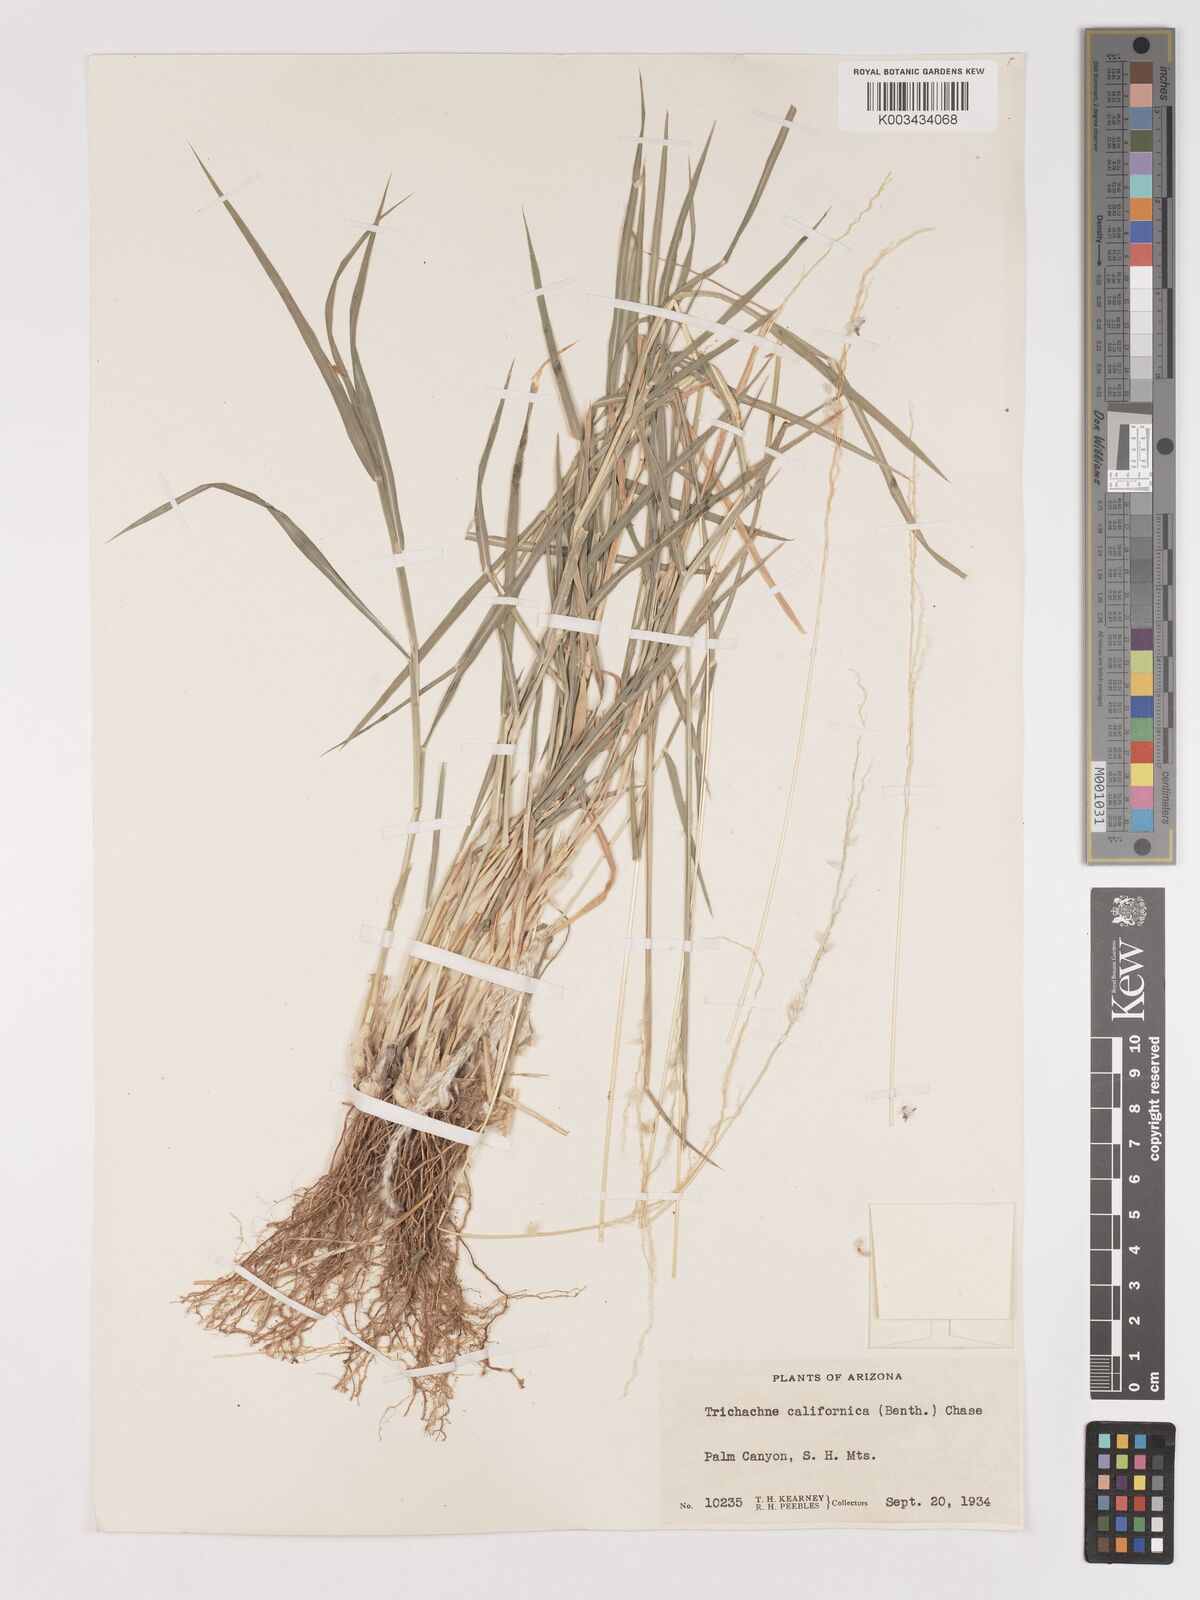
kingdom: Plantae
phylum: Tracheophyta
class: Liliopsida
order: Poales
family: Poaceae
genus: Digitaria
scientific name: Digitaria californica
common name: Arizona cottontop
